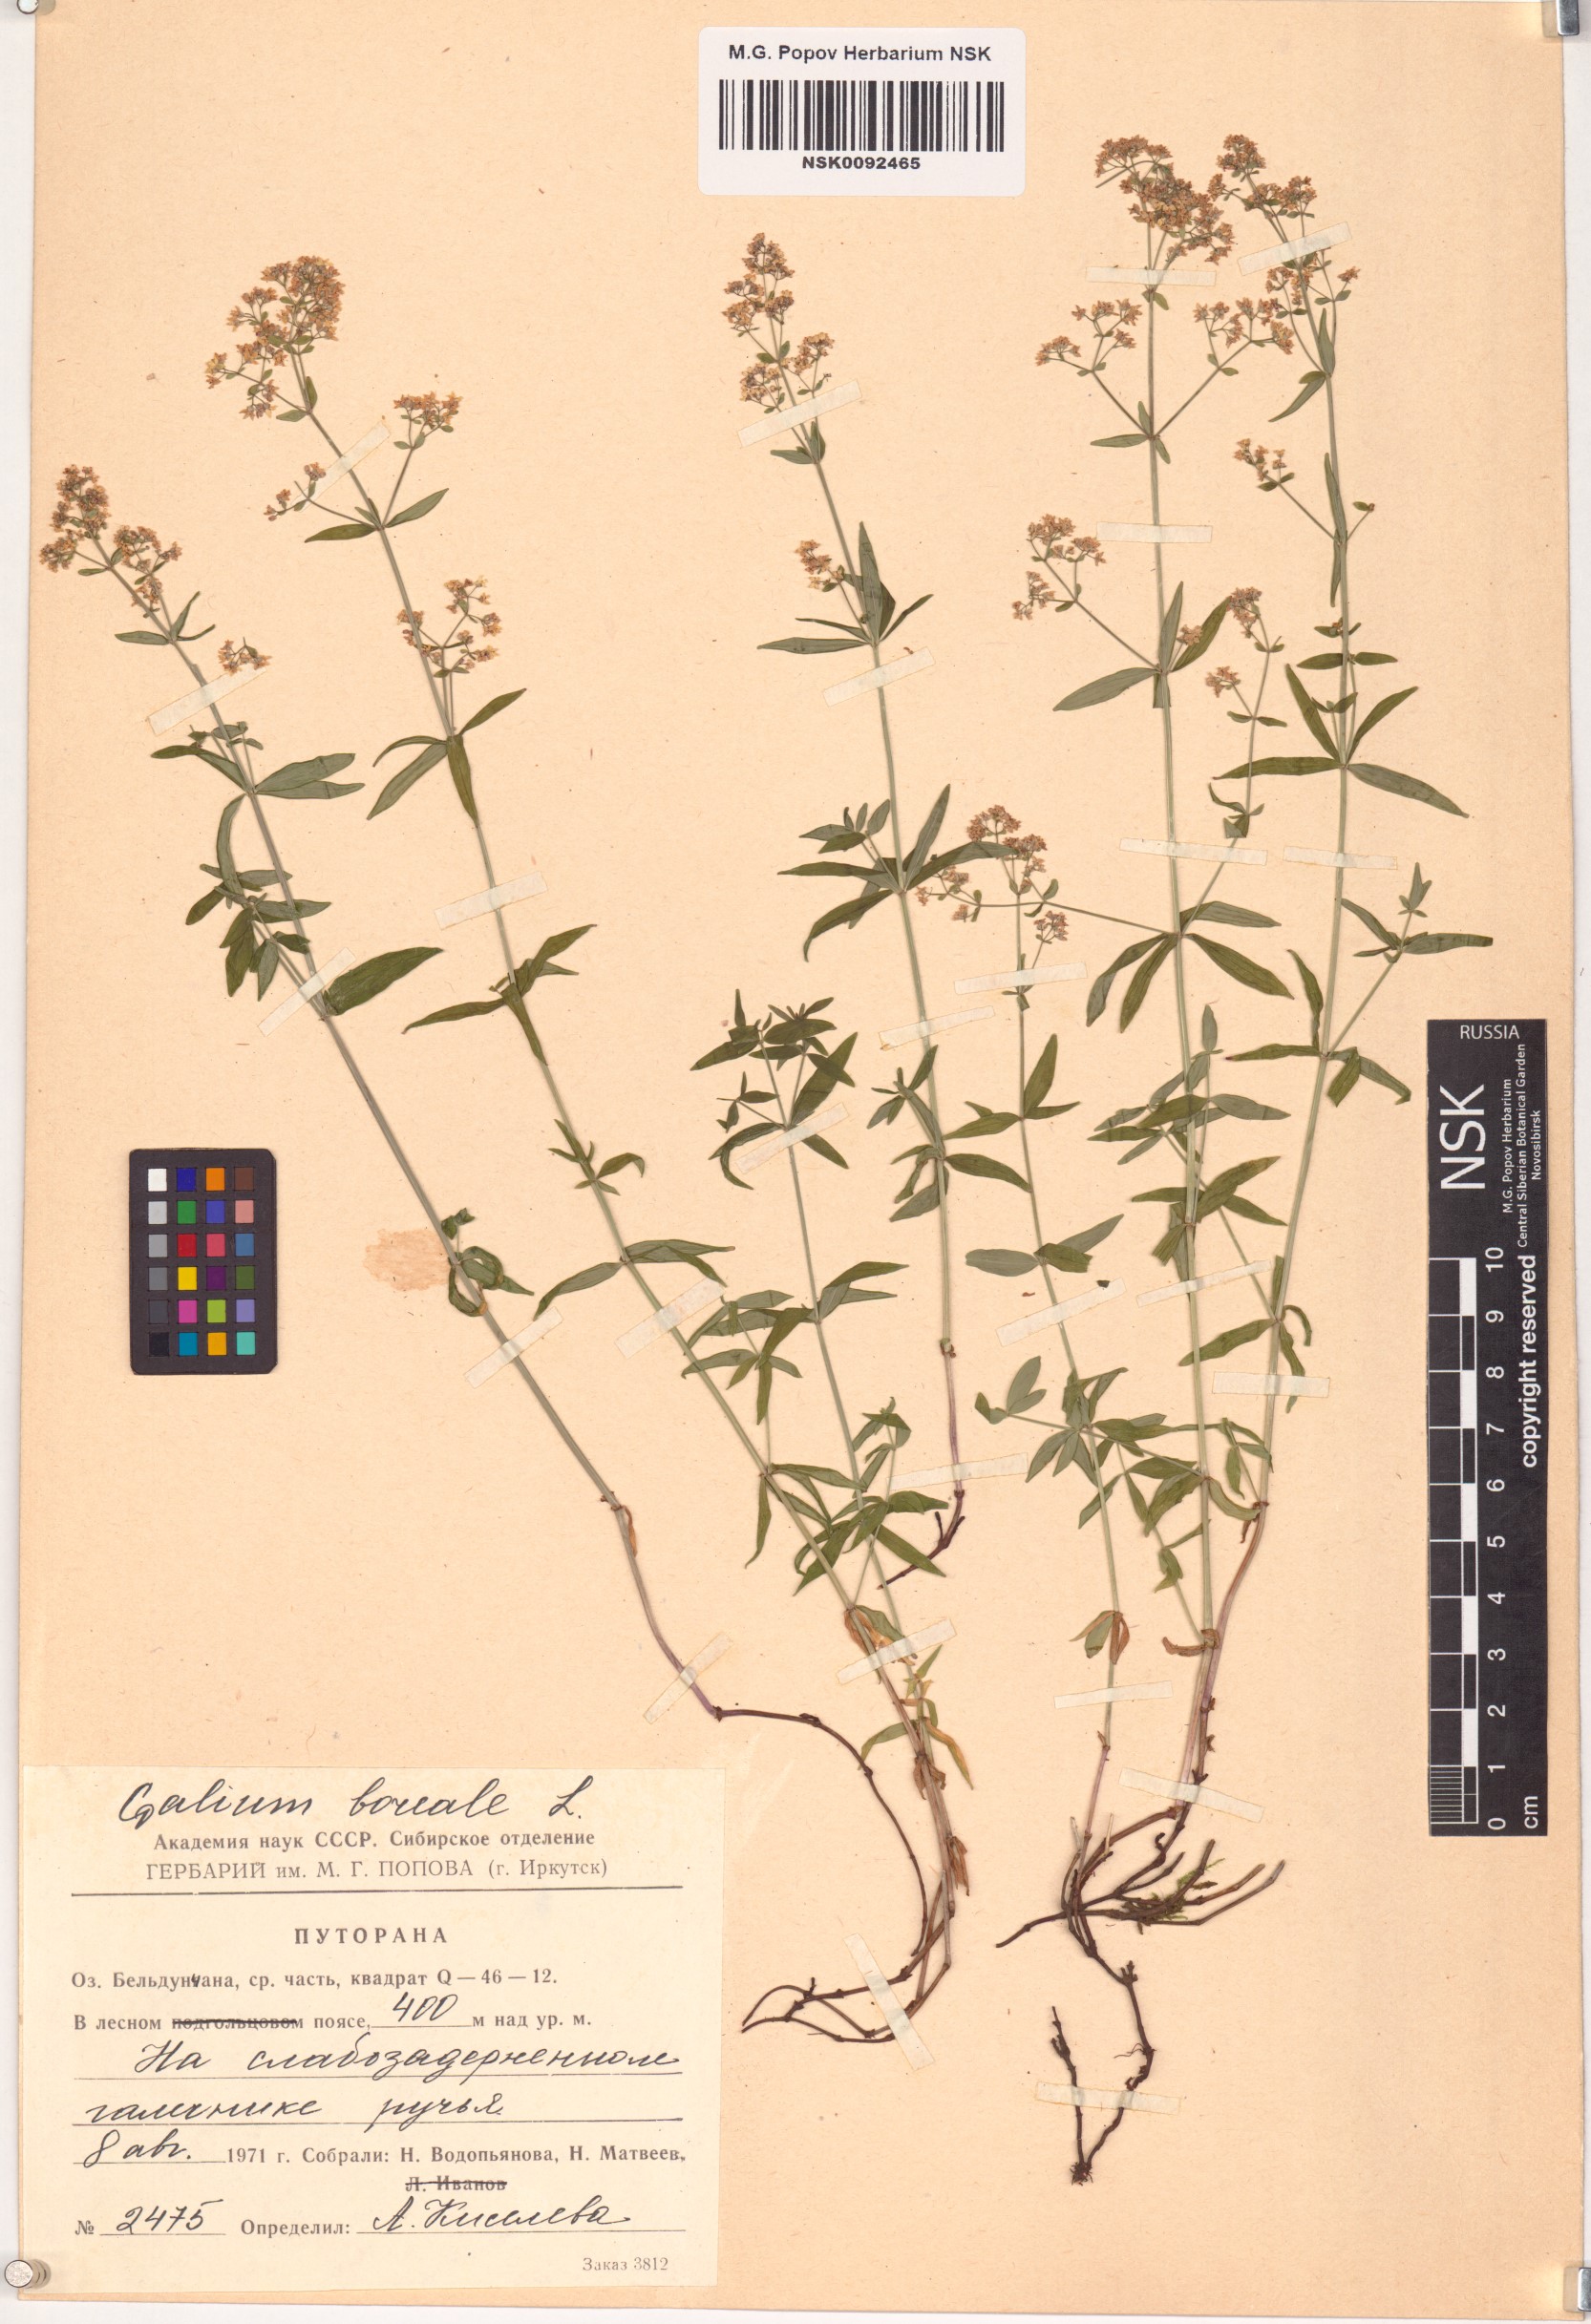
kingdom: Plantae
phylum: Tracheophyta
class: Magnoliopsida
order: Gentianales
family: Rubiaceae
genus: Galium
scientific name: Galium boreale
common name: Northern bedstraw
